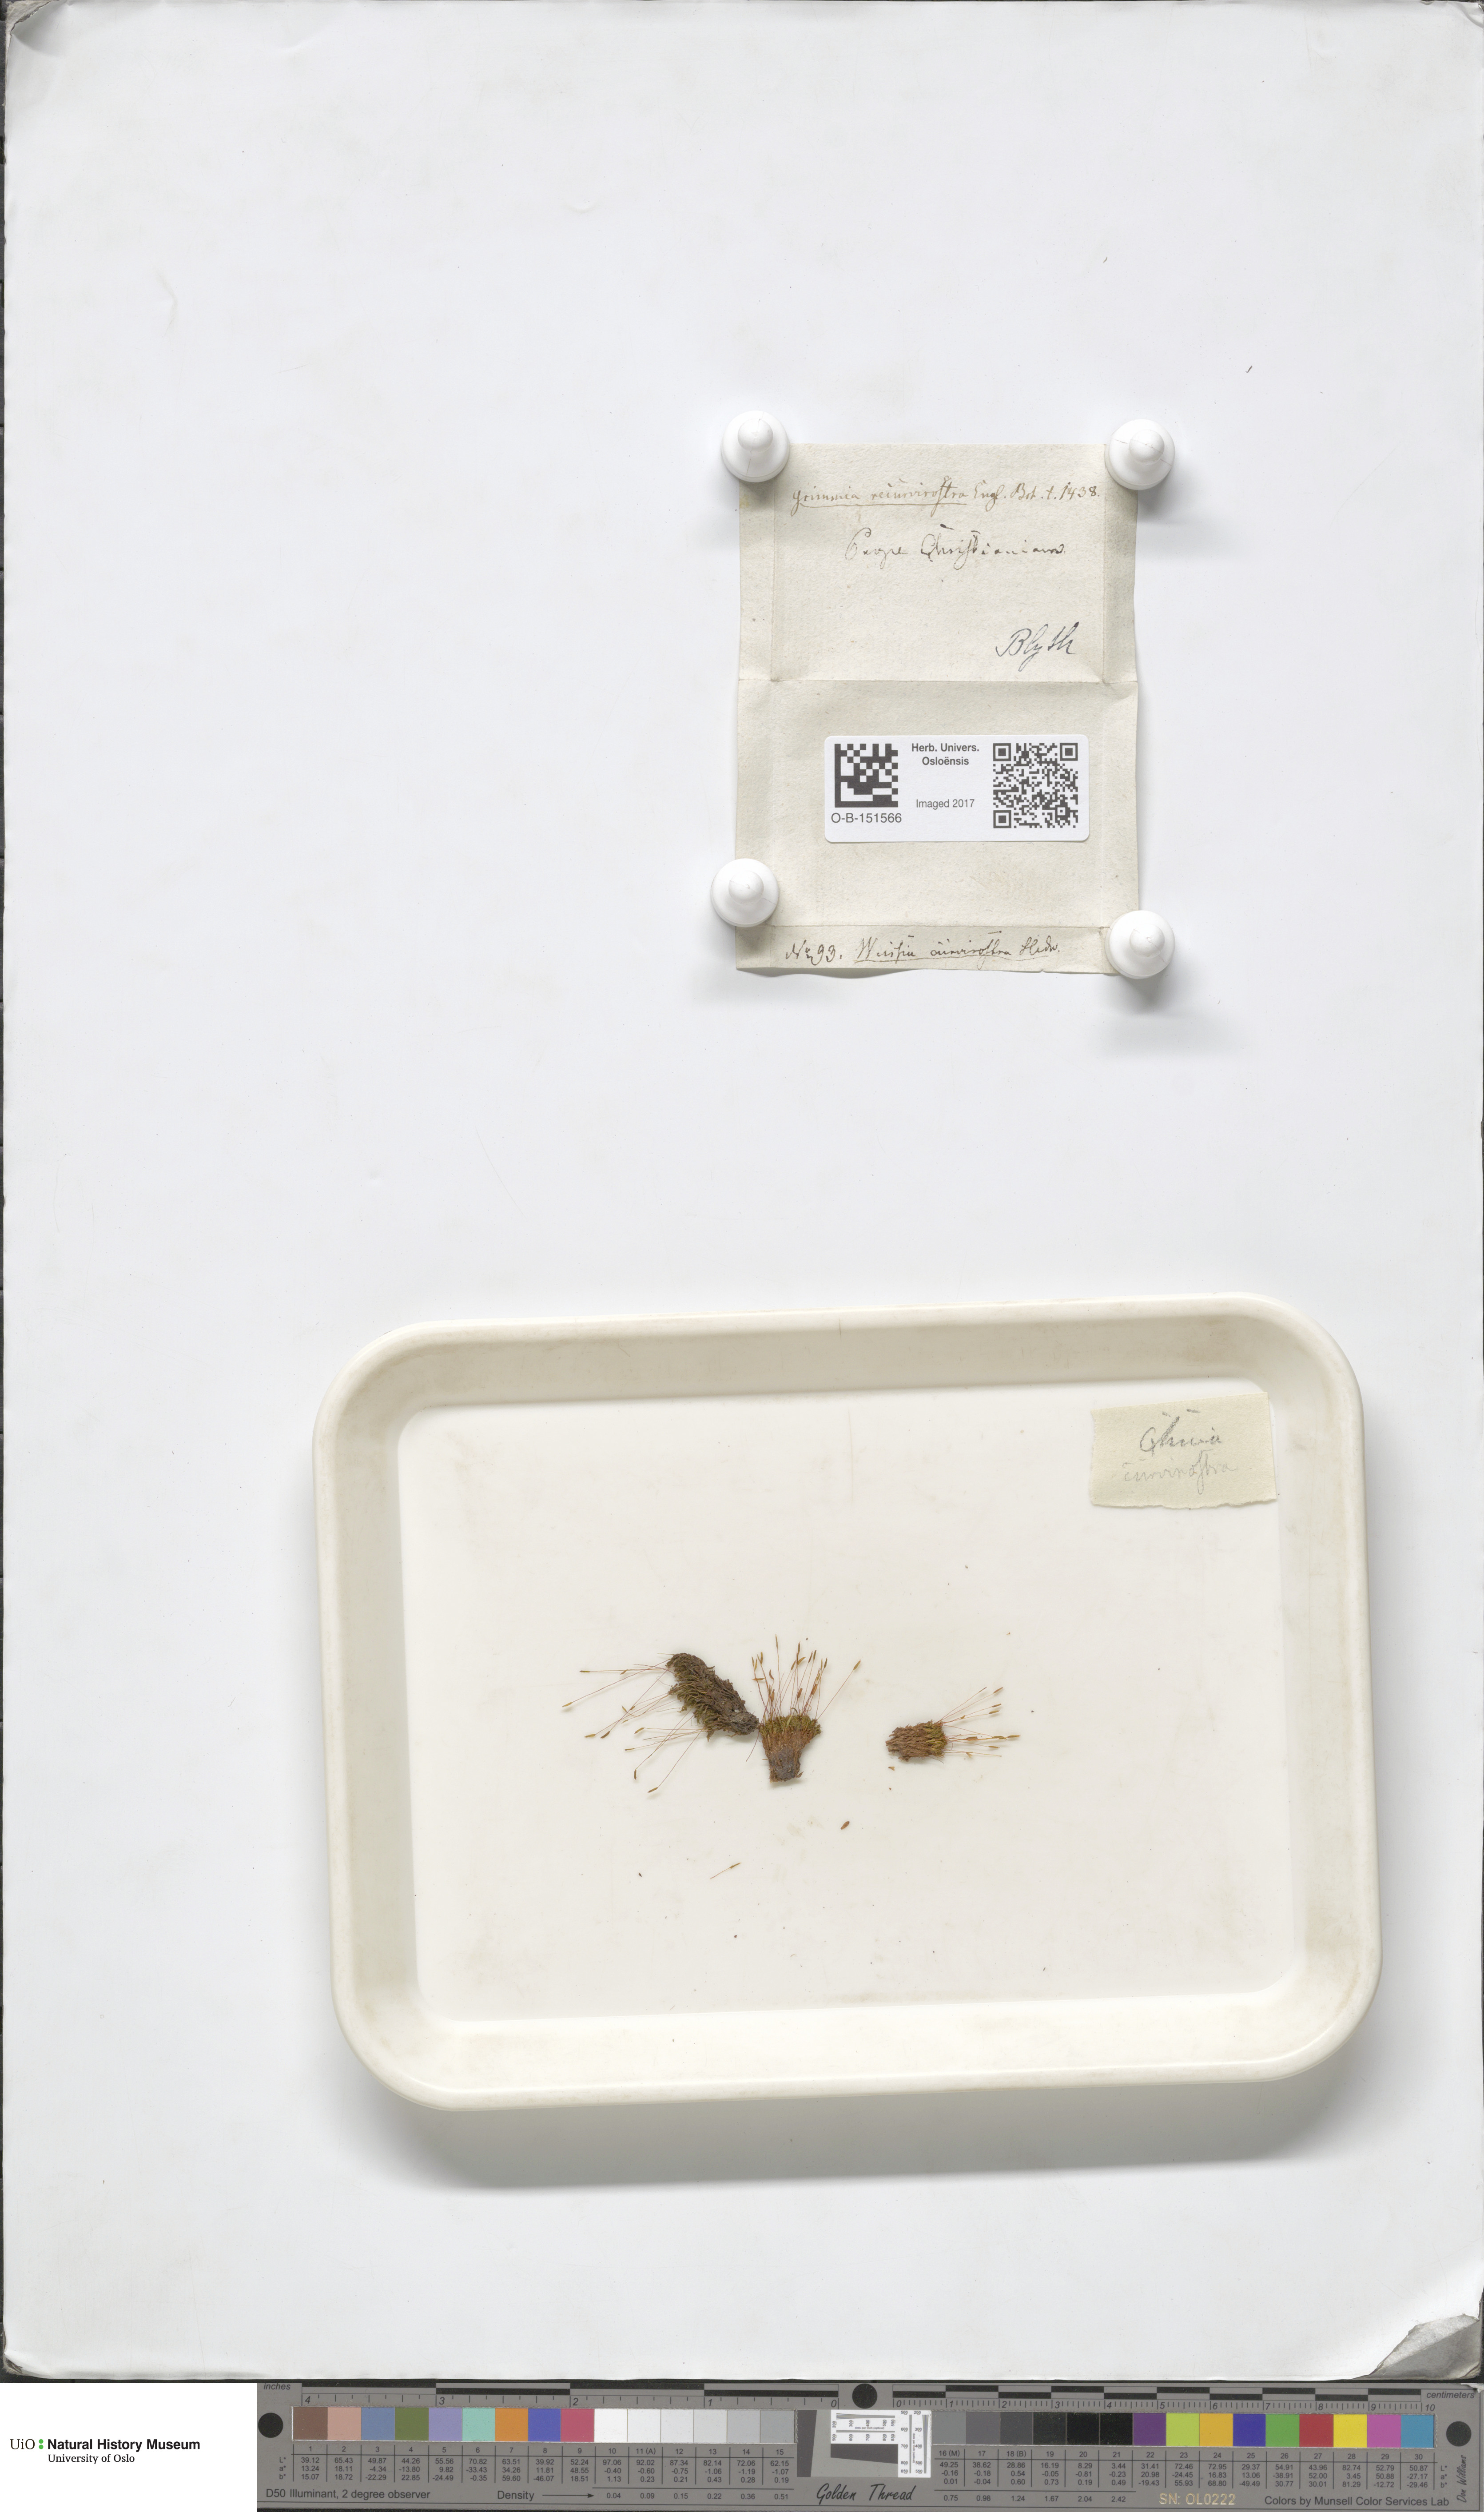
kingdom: Plantae
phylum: Bryophyta
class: Bryopsida
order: Pottiales
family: Pottiaceae
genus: Bryoerythrophyllum
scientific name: Bryoerythrophyllum recurvirostrum
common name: Red beard moss
